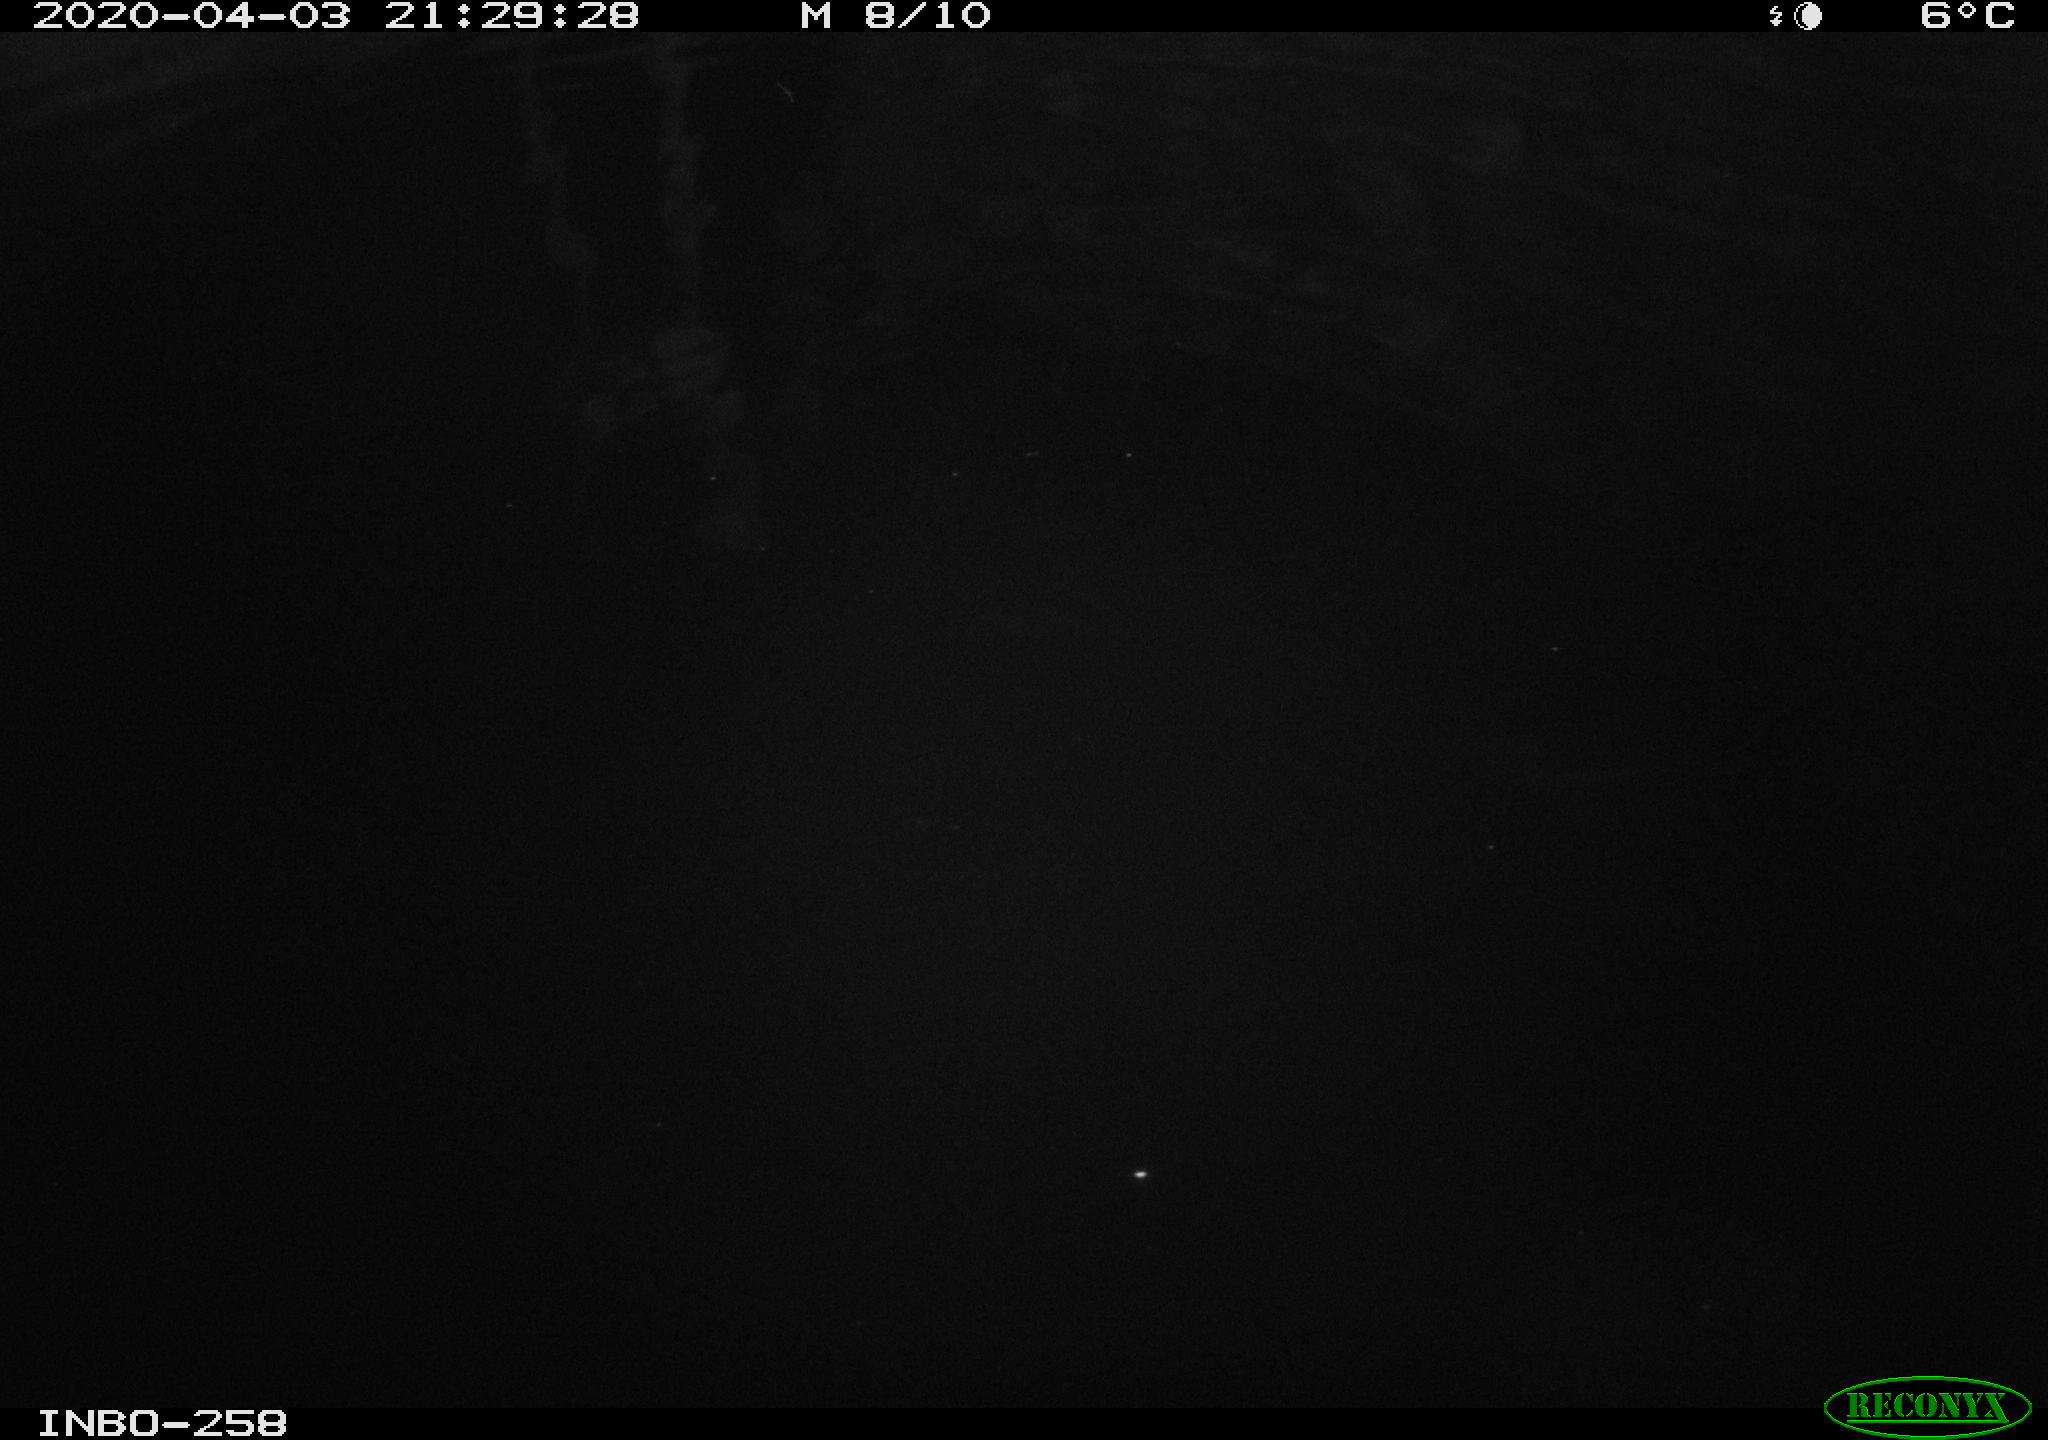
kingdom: Animalia
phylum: Chordata
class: Aves
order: Anseriformes
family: Anatidae
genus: Anas
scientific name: Anas platyrhynchos
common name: Mallard
